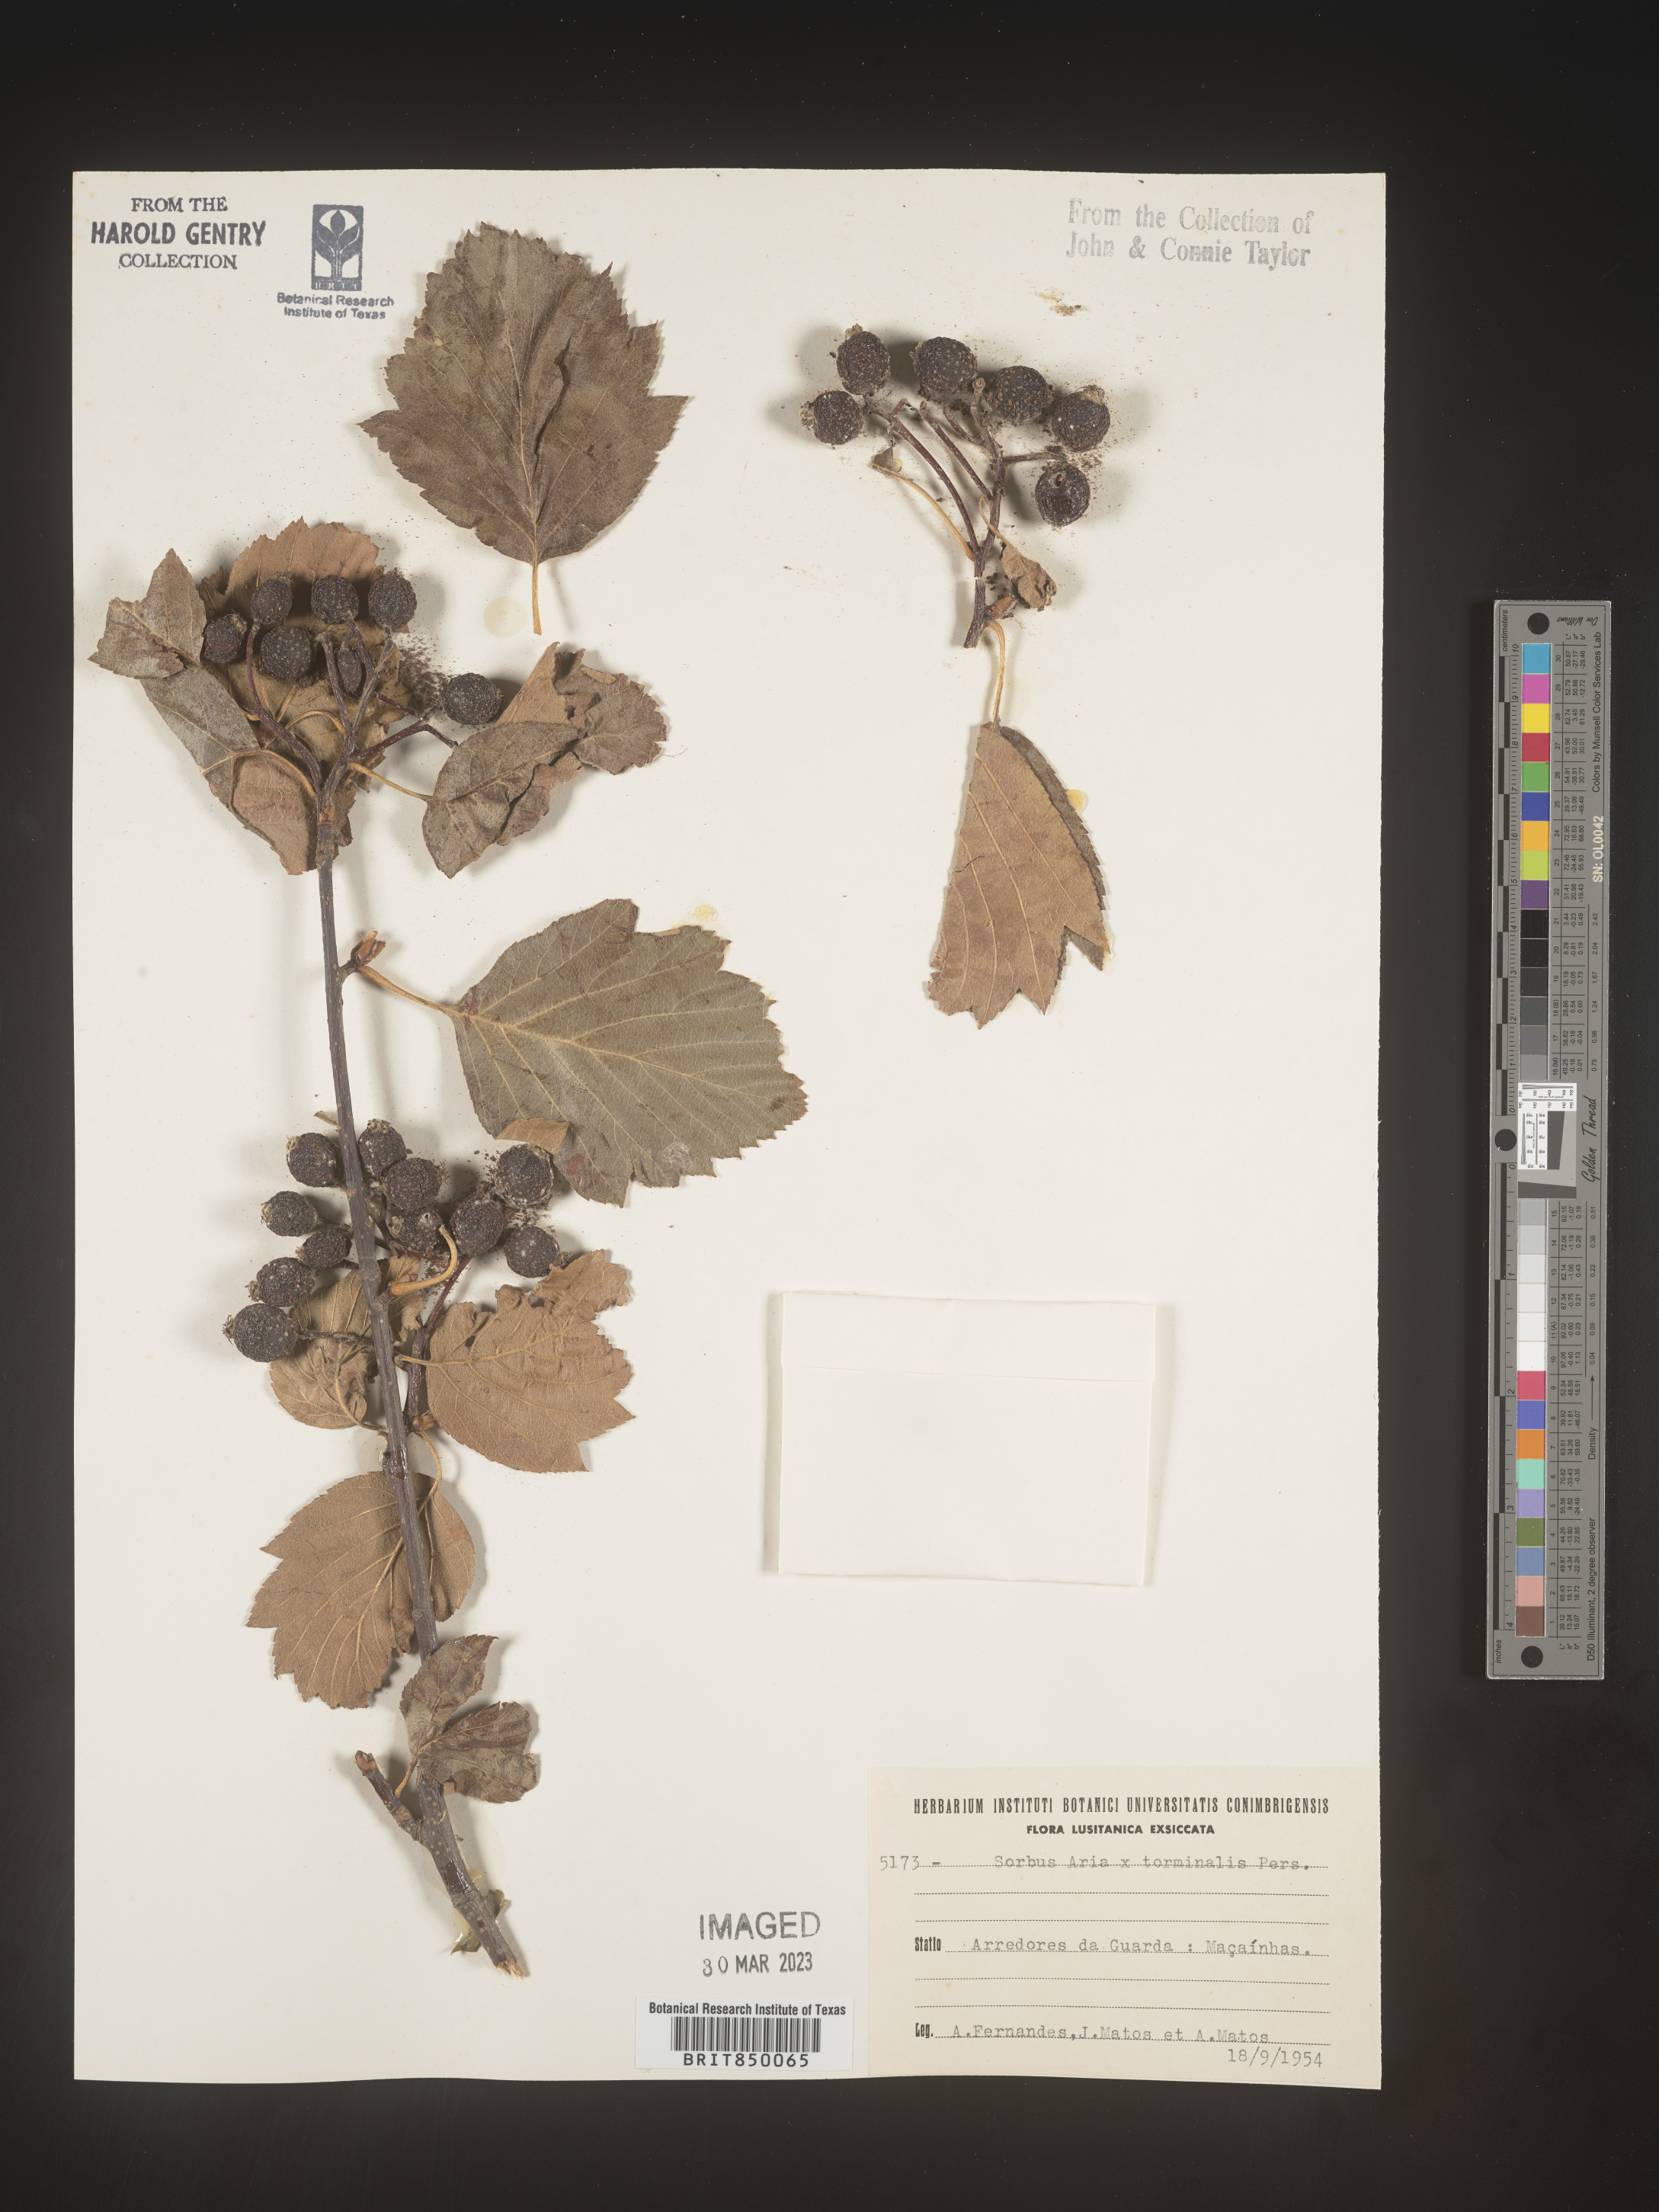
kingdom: Plantae
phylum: Tracheophyta
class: Magnoliopsida
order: Rosales
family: Rosaceae
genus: Sorbus
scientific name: Sorbus
